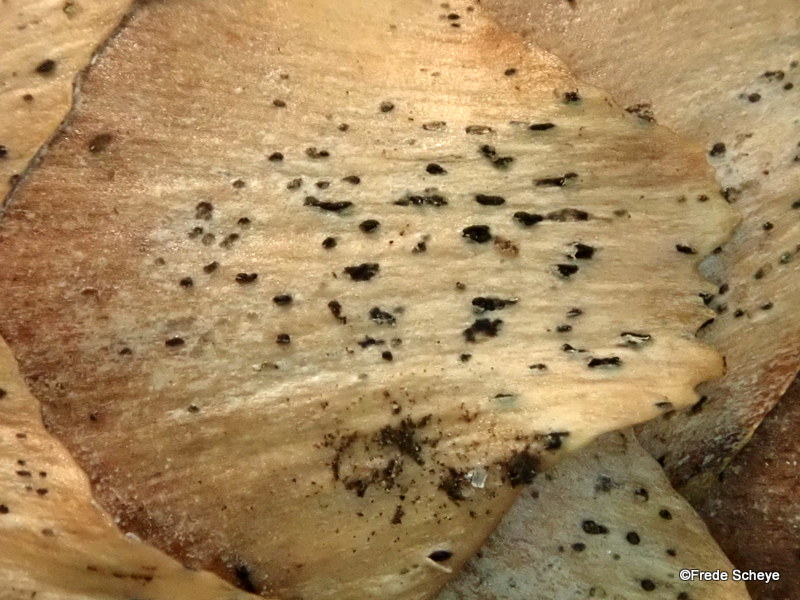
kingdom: Fungi
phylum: Ascomycota
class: Sordariomycetes
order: Diaporthales
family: Gnomoniaceae
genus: Sirococcus
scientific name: Sirococcus conigenus
